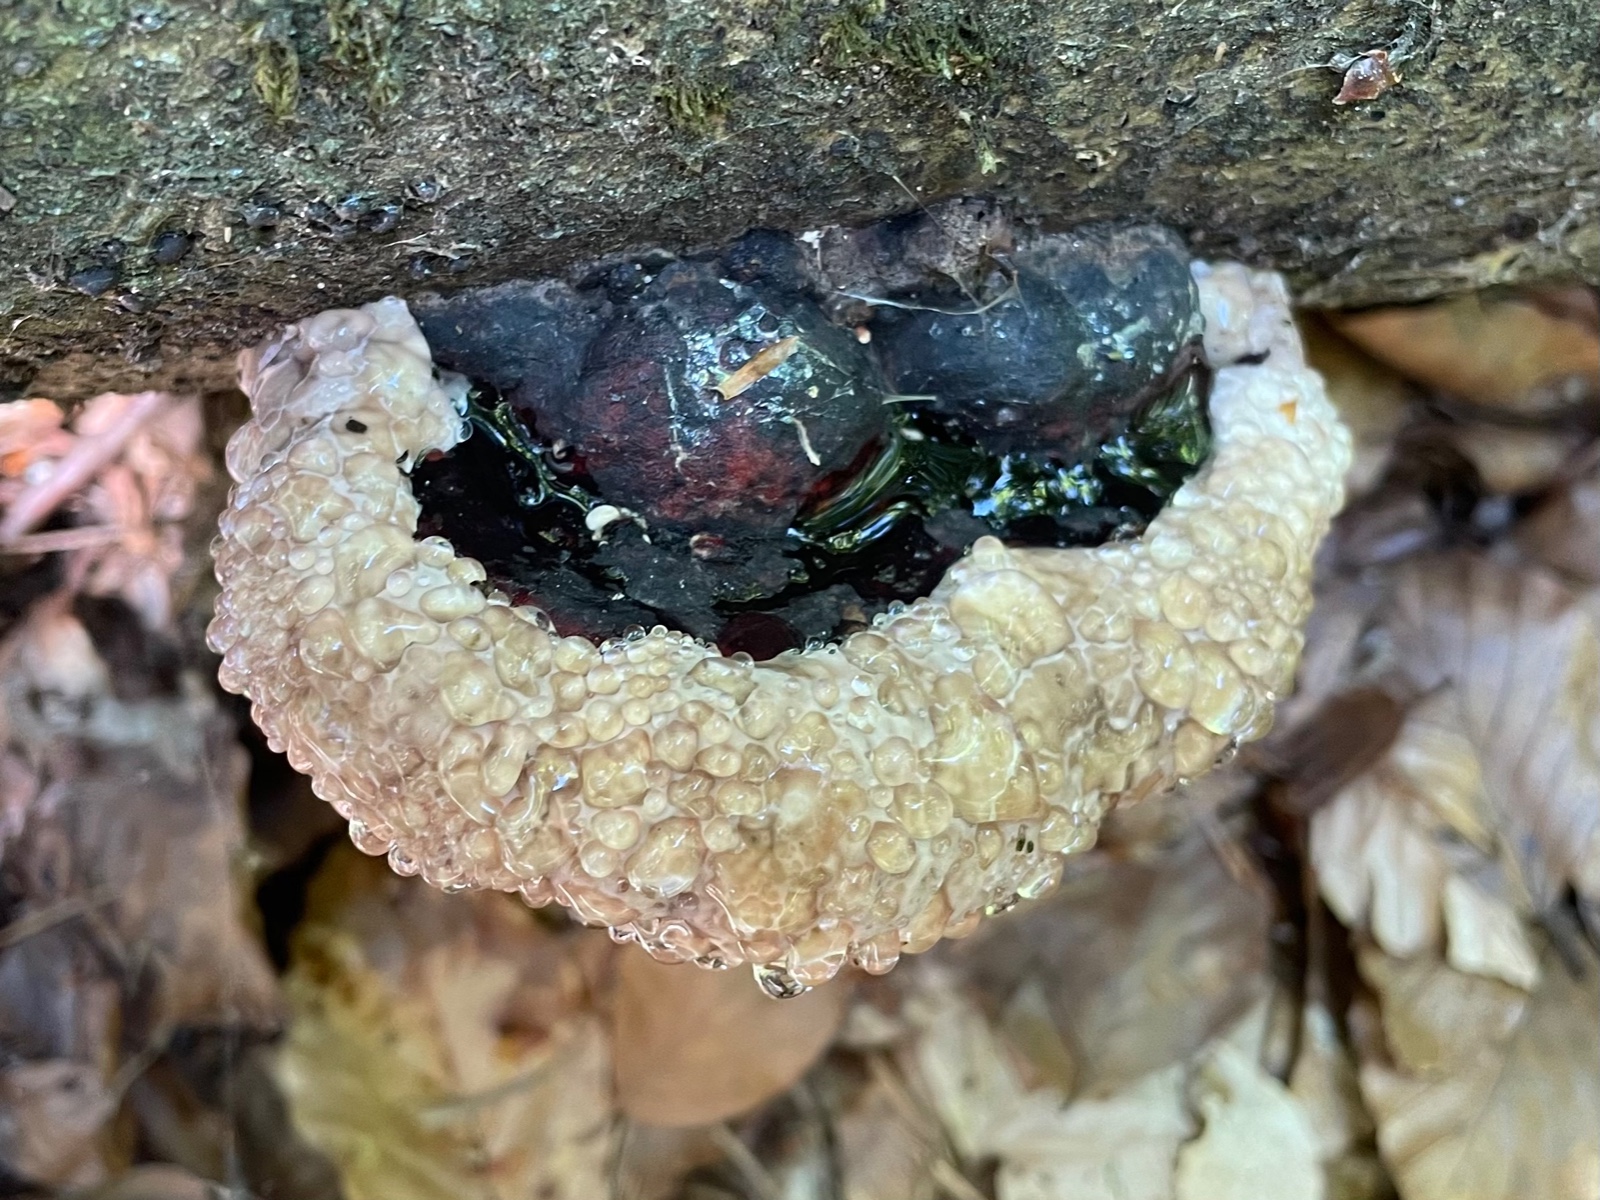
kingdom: Fungi
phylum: Basidiomycota
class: Agaricomycetes
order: Polyporales
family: Fomitopsidaceae
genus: Fomitopsis
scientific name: Fomitopsis pinicola
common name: randbæltet hovporesvamp
